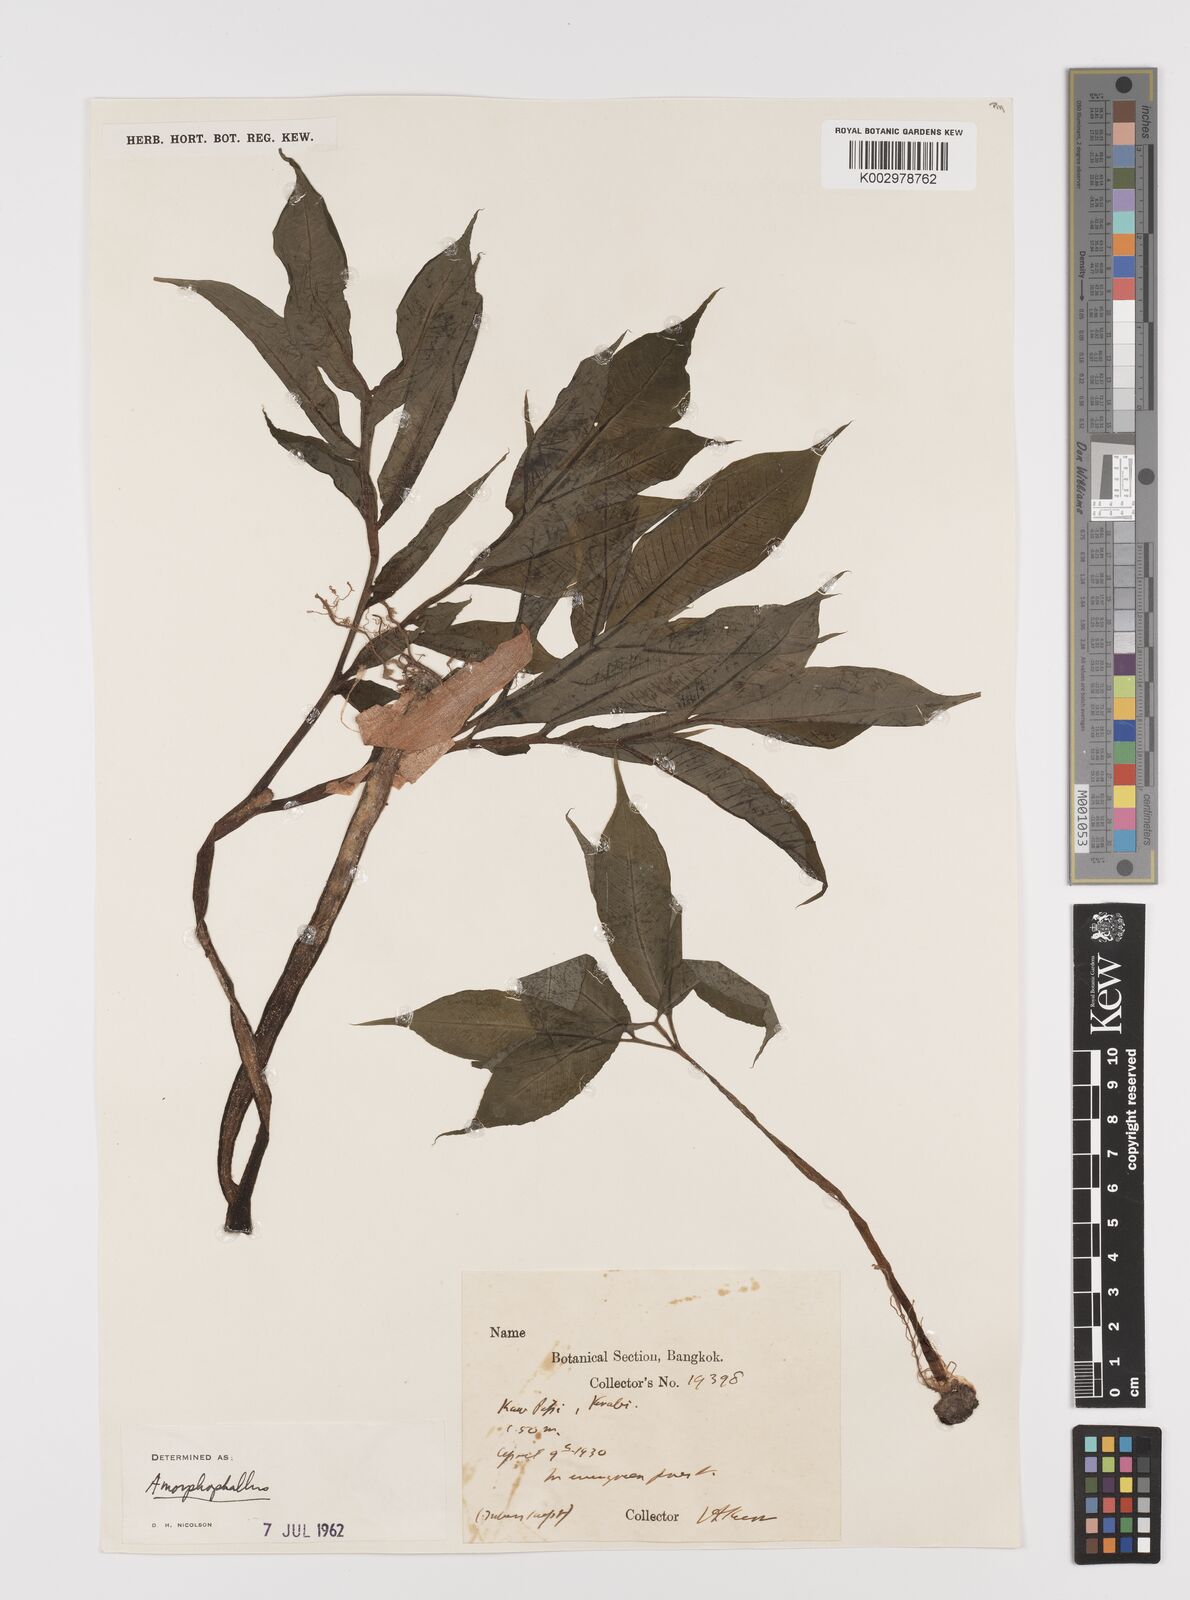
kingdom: Plantae
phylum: Tracheophyta
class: Liliopsida
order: Alismatales
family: Araceae
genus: Amorphophallus
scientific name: Amorphophallus
